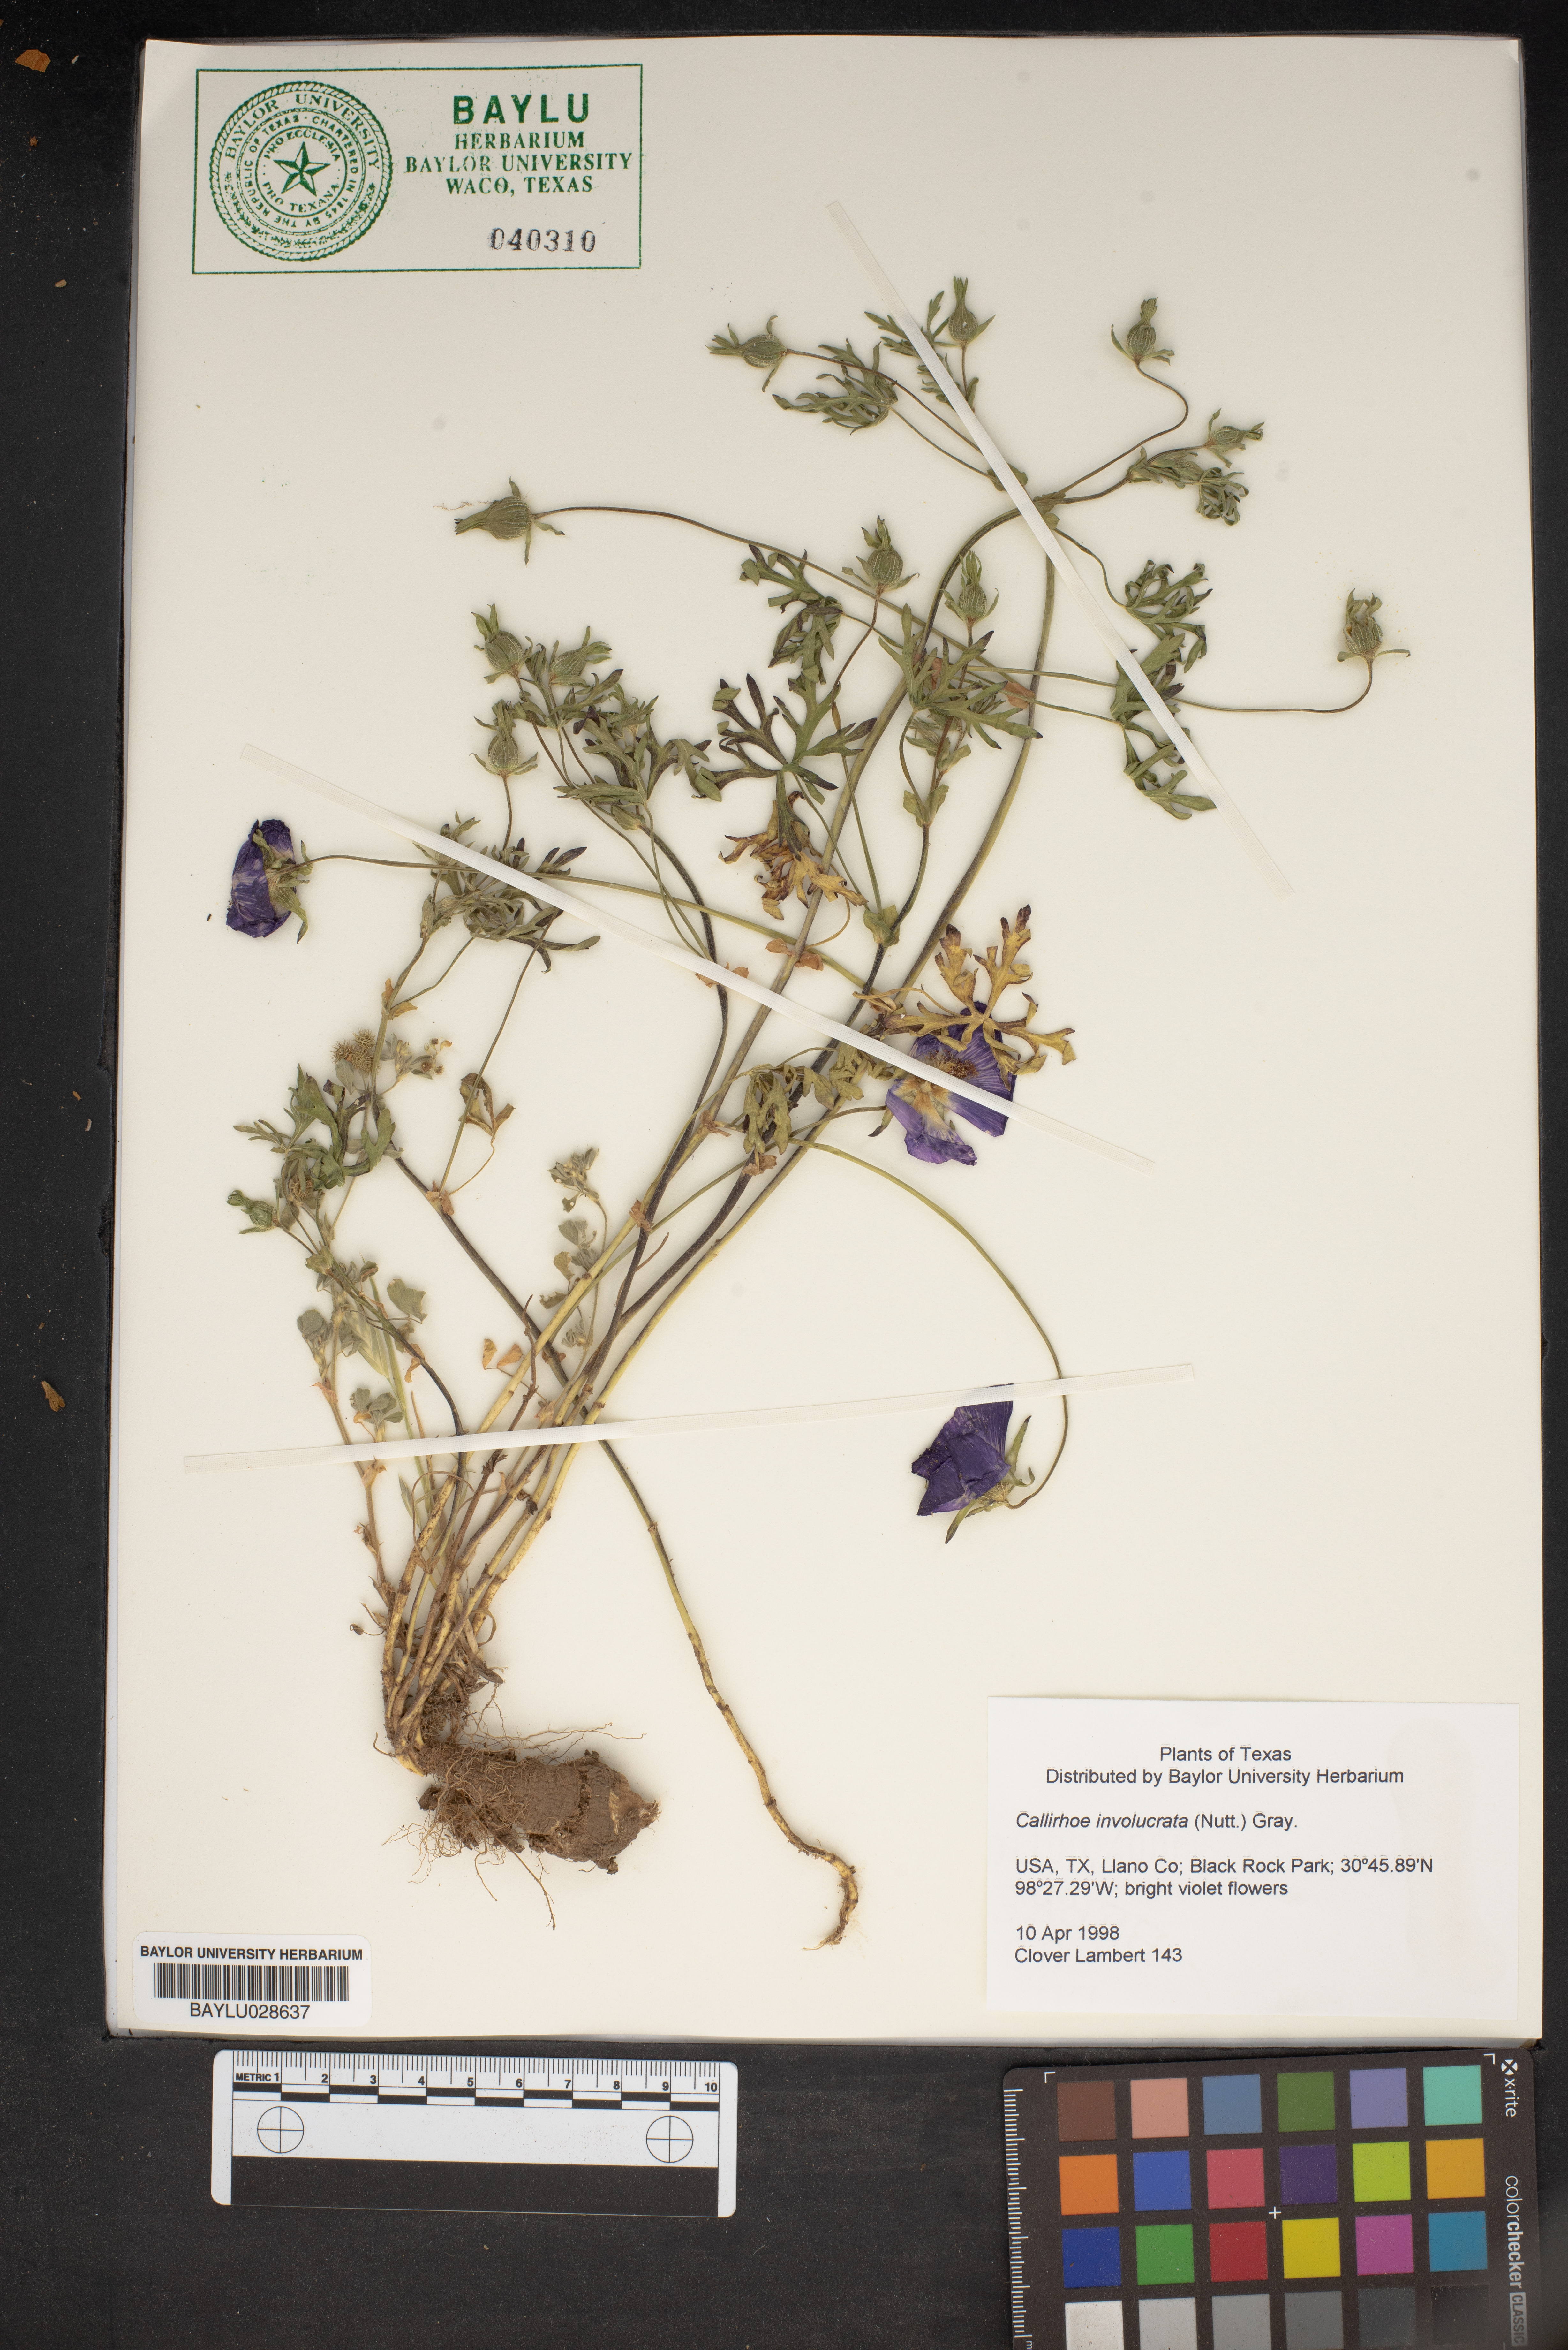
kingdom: Plantae
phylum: Tracheophyta
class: Magnoliopsida
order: Malvales
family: Malvaceae
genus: Callirhoe
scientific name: Callirhoe involucrata
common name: Purple poppy-mallow
